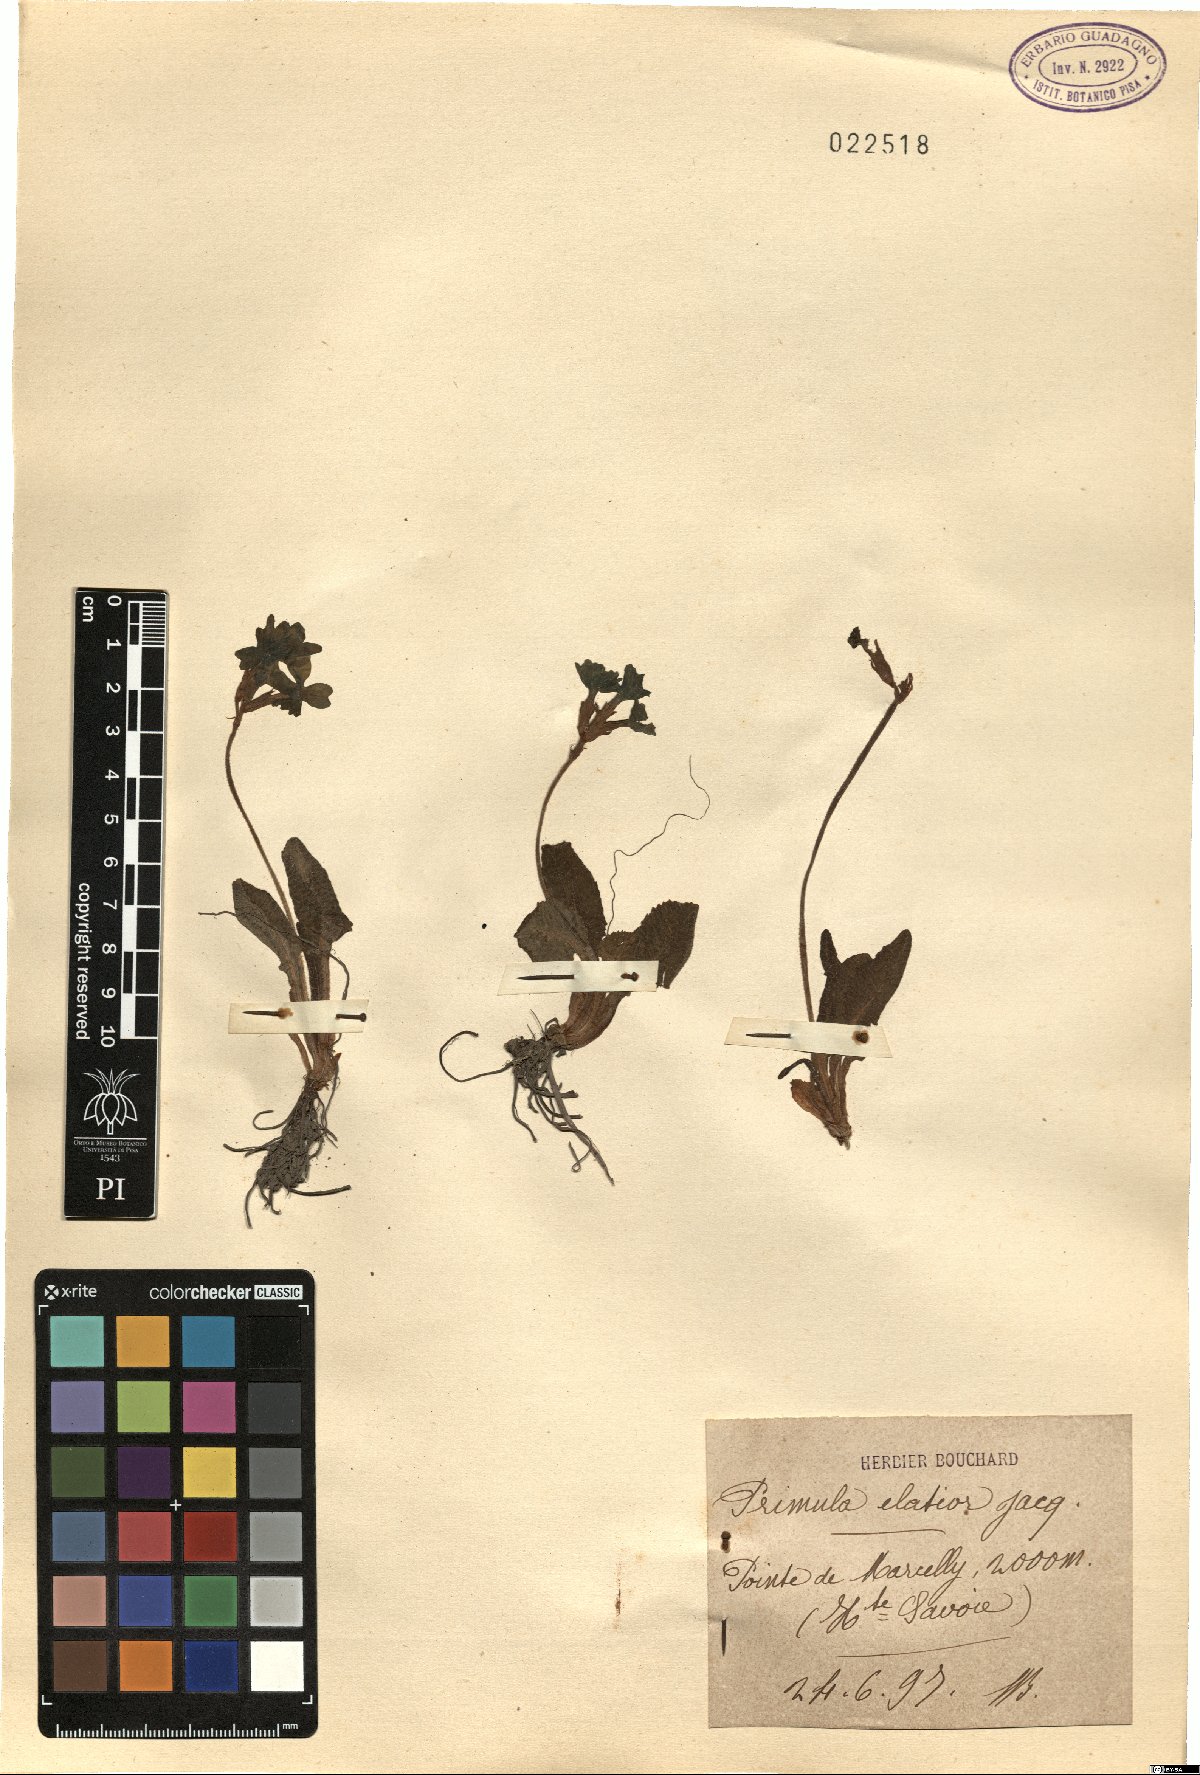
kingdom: Plantae
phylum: Tracheophyta
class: Magnoliopsida
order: Ericales
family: Primulaceae
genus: Primula
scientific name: Primula elatior
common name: Oxlip
